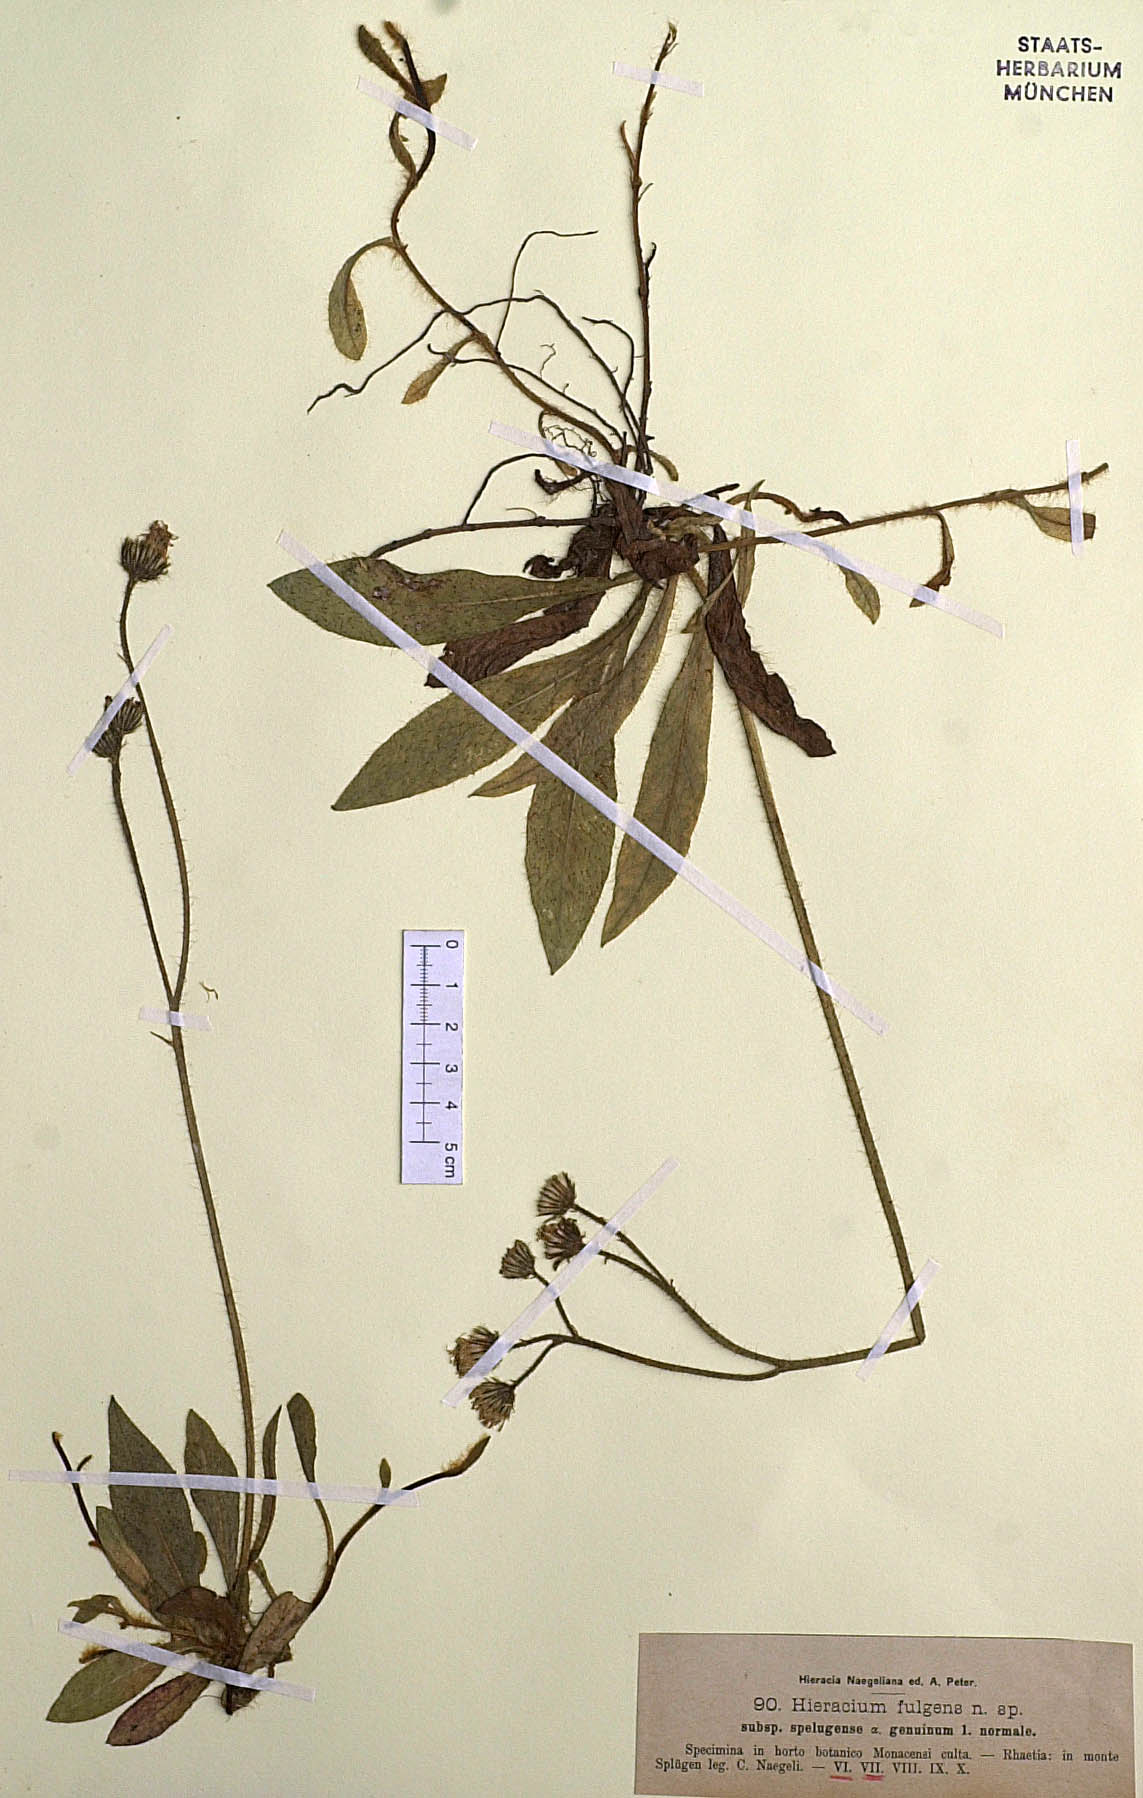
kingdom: Plantae
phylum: Tracheophyta
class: Magnoliopsida
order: Asterales
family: Asteraceae
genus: Pilosella
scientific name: Pilosella notha
